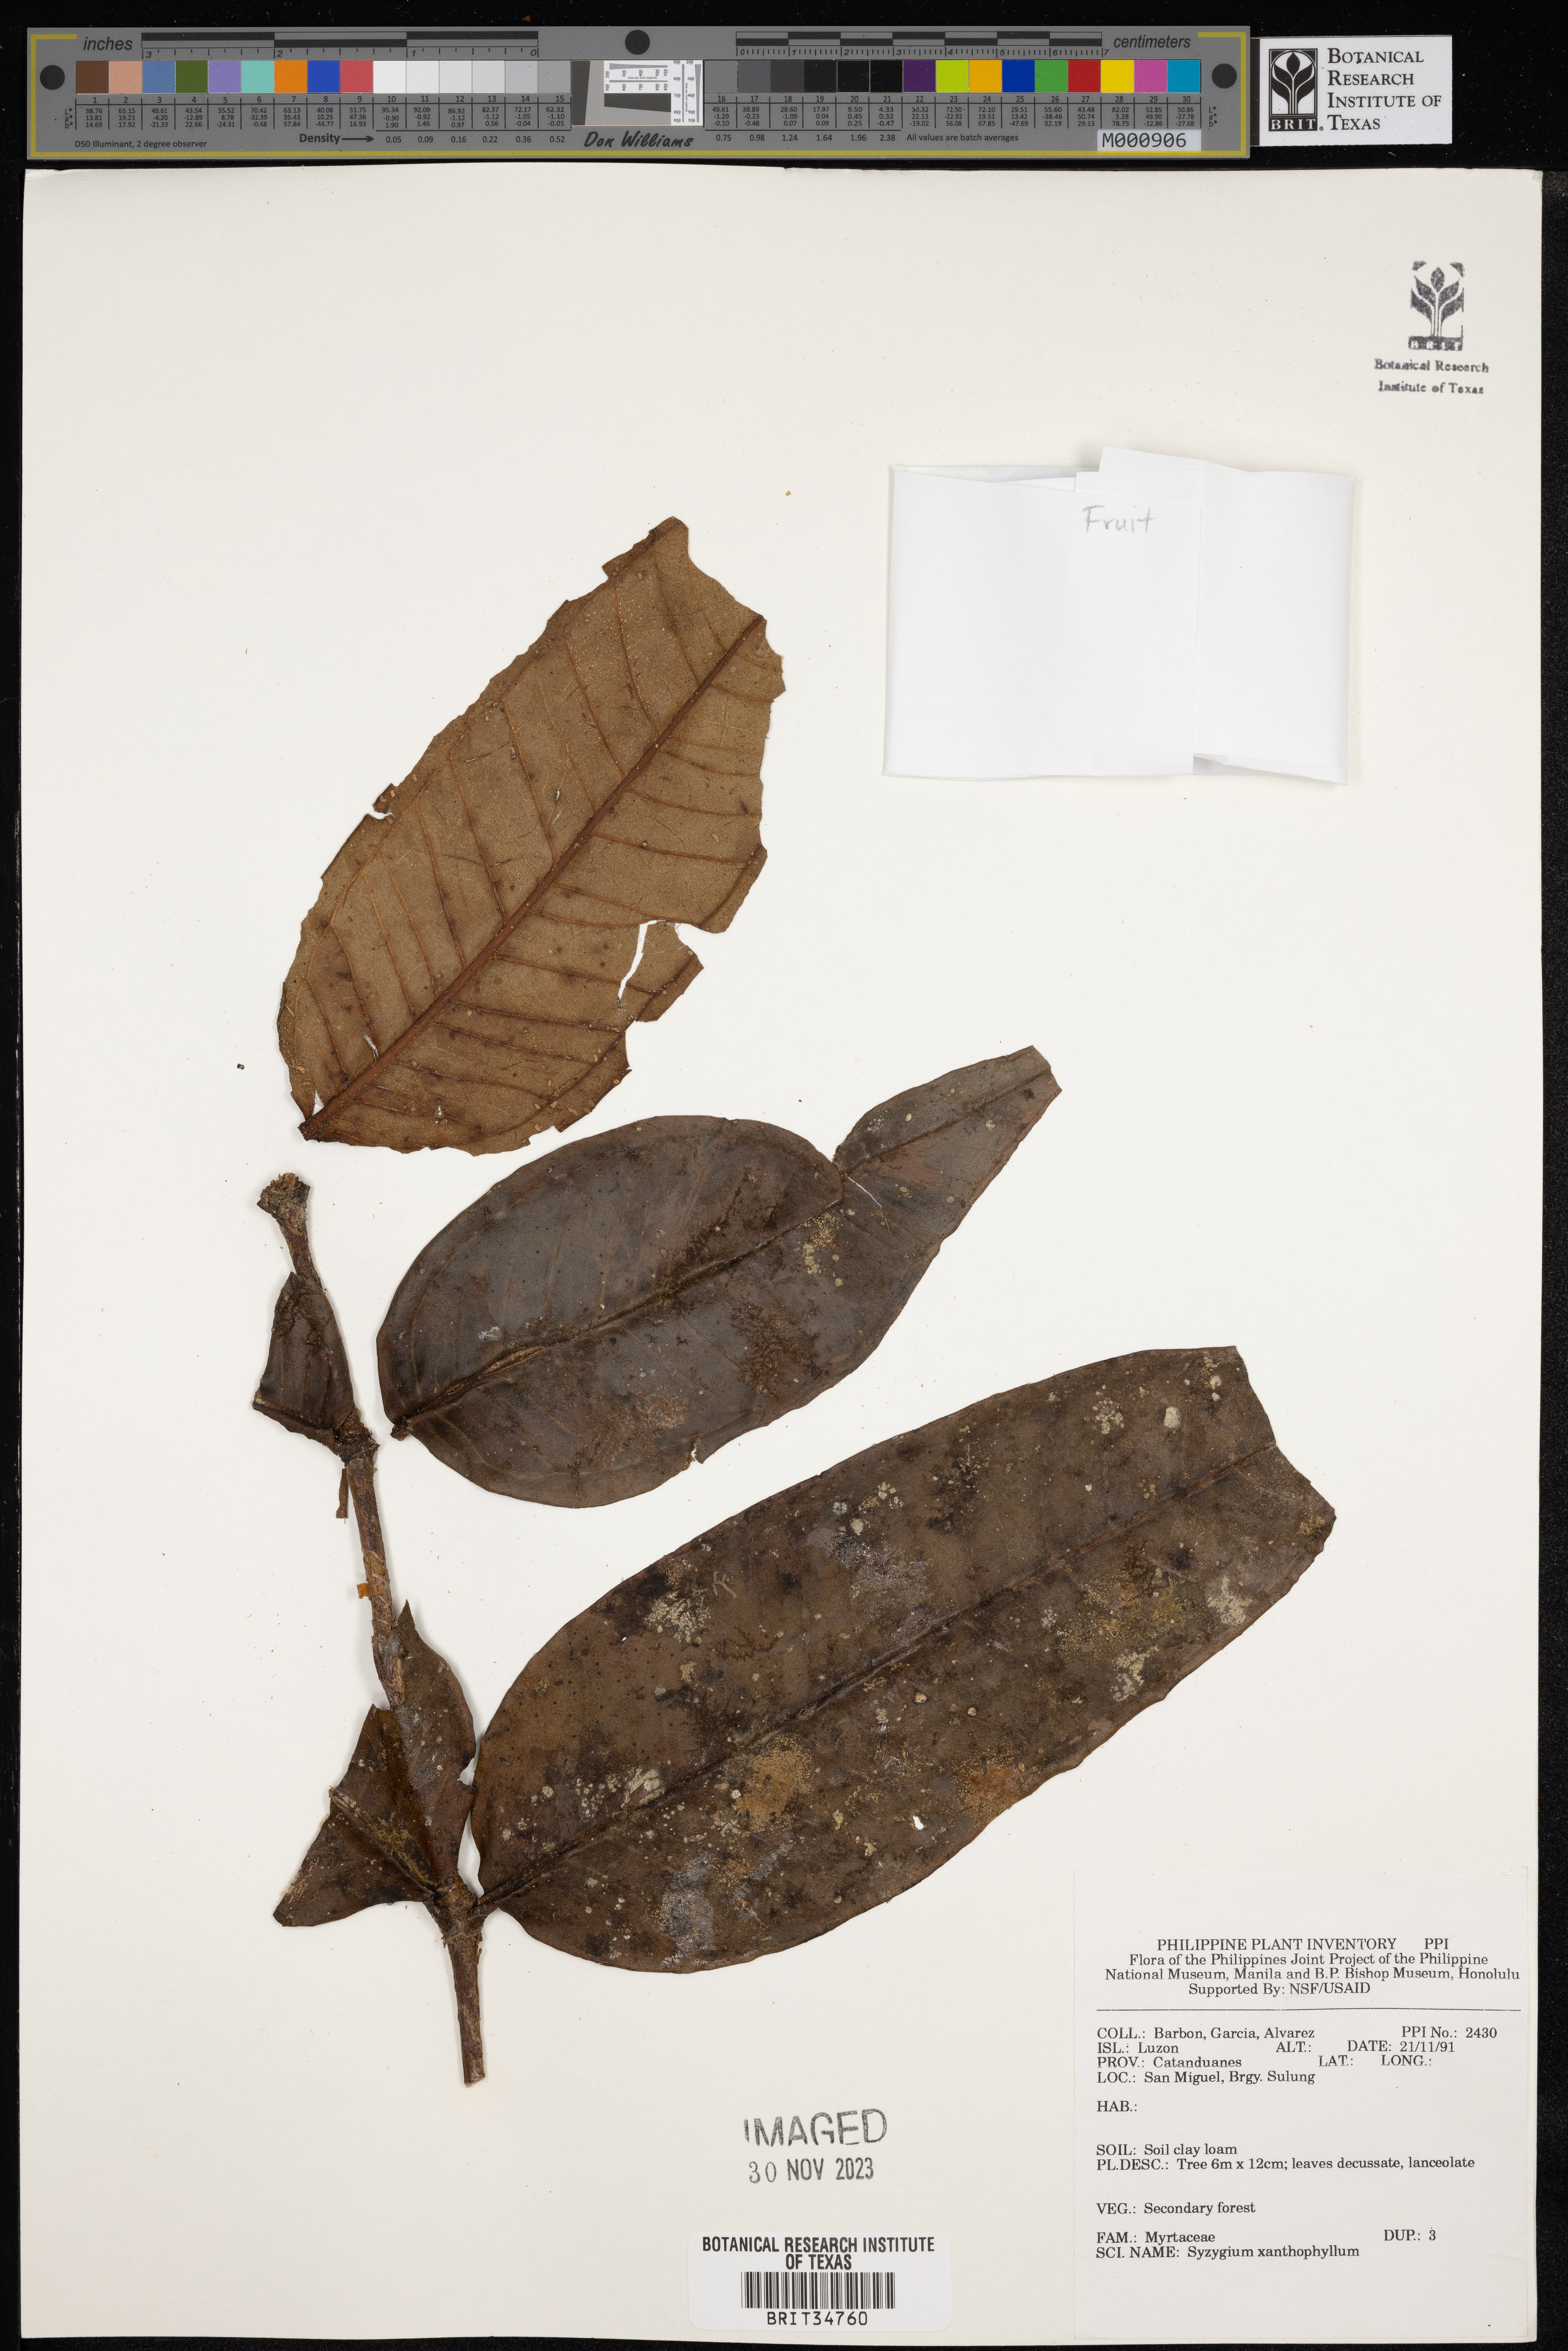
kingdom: Plantae
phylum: Tracheophyta
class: Magnoliopsida
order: Myrtales
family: Myrtaceae
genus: Syzygium
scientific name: Syzygium xanthophyllum
